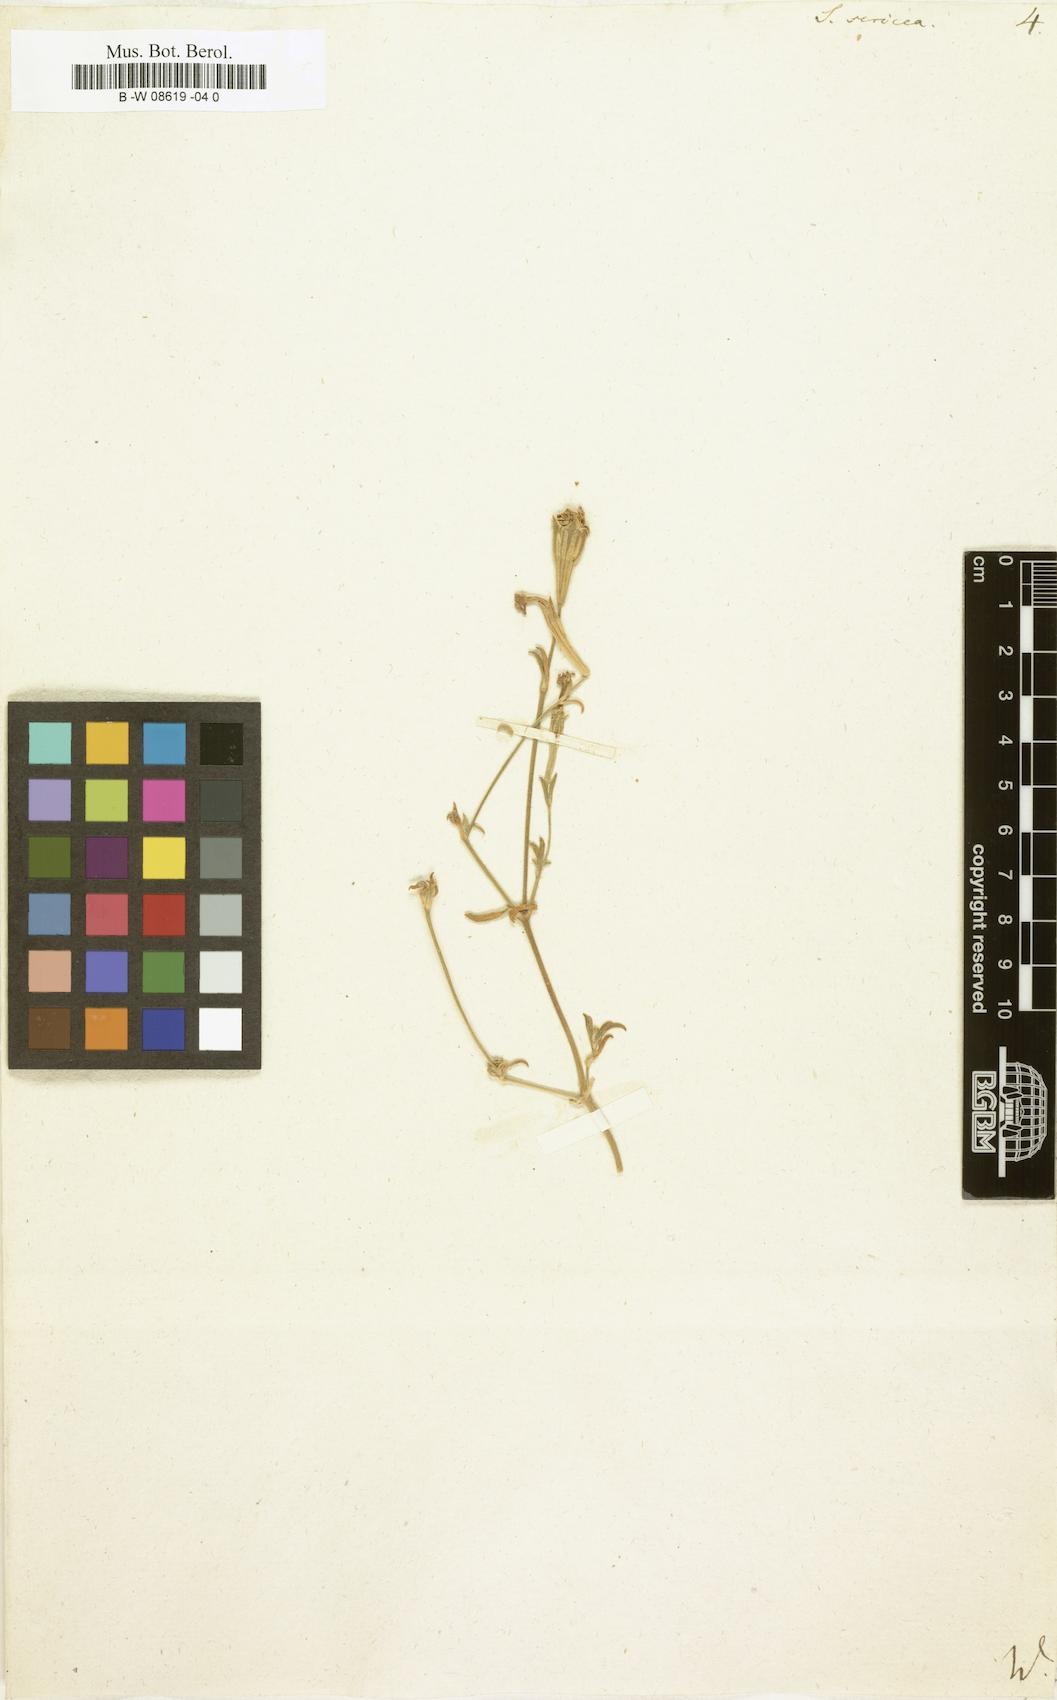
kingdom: Plantae
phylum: Tracheophyta
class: Magnoliopsida
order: Caryophyllales
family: Caryophyllaceae
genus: Silene
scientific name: Silene sericea
